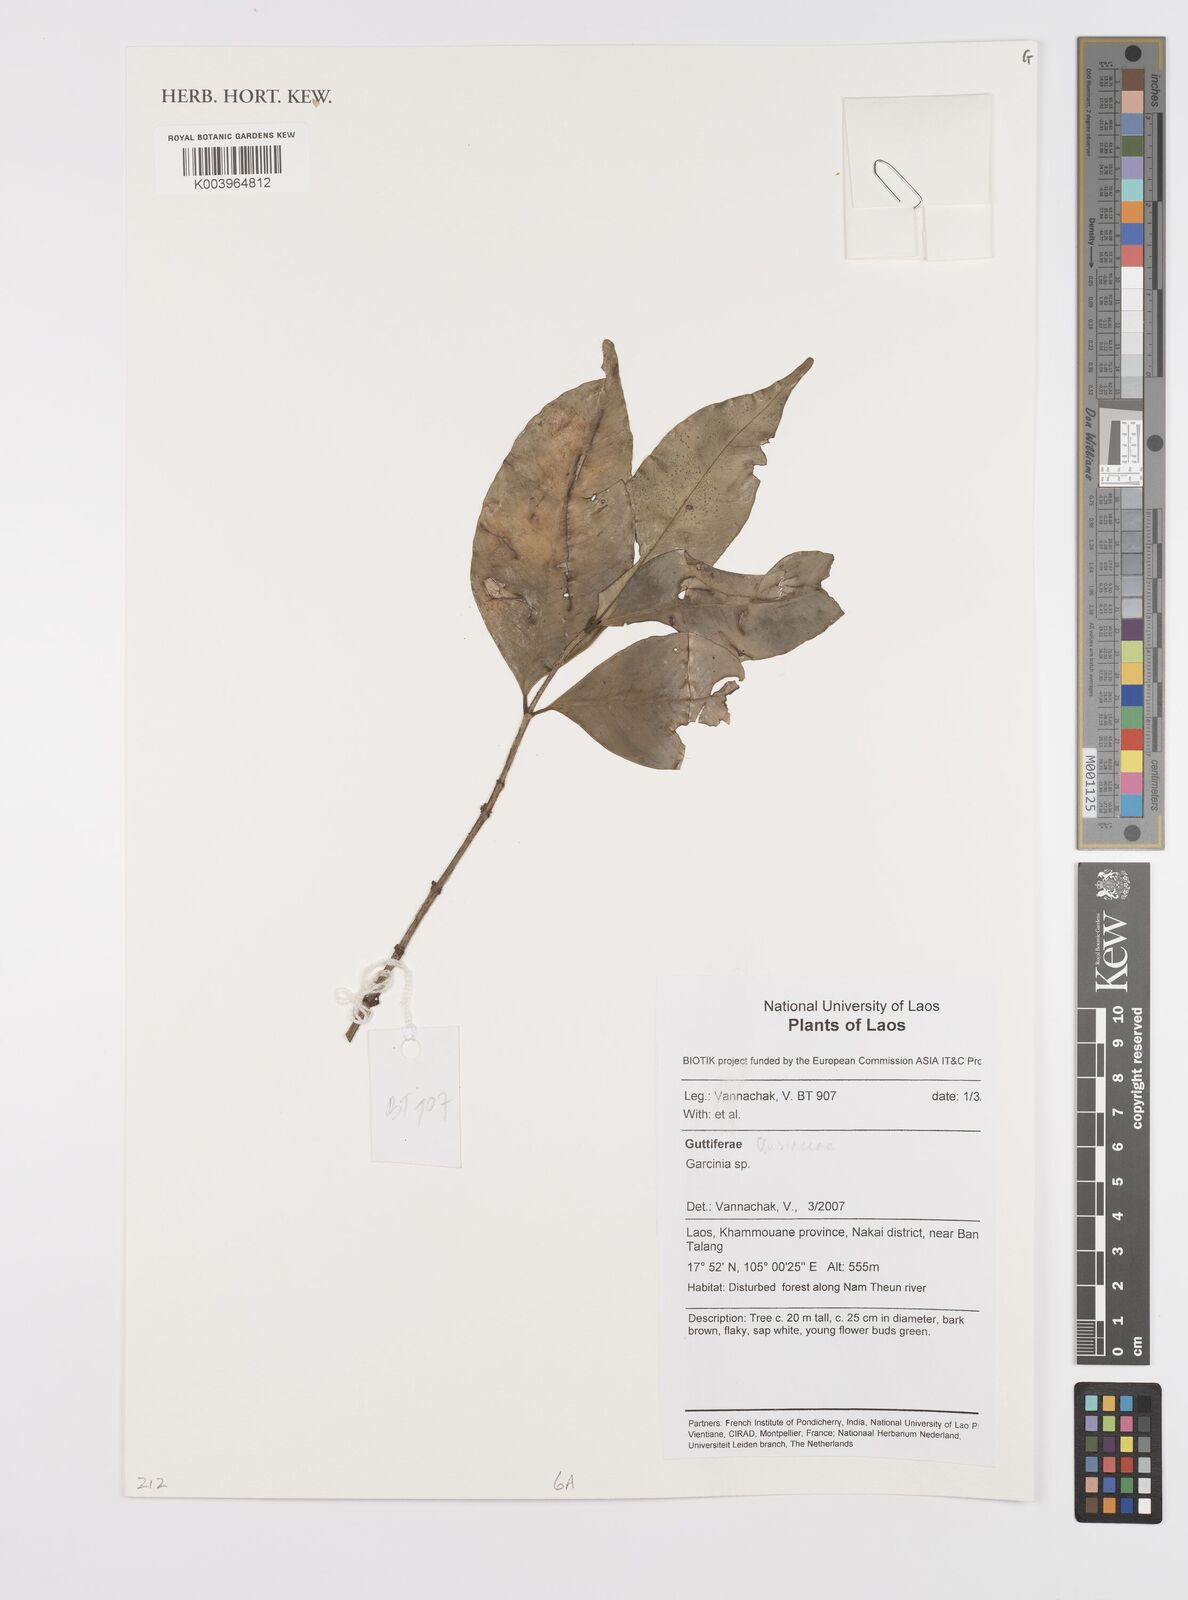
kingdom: Plantae
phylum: Tracheophyta
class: Magnoliopsida
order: Malpighiales
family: Clusiaceae
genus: Garcinia
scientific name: Garcinia
